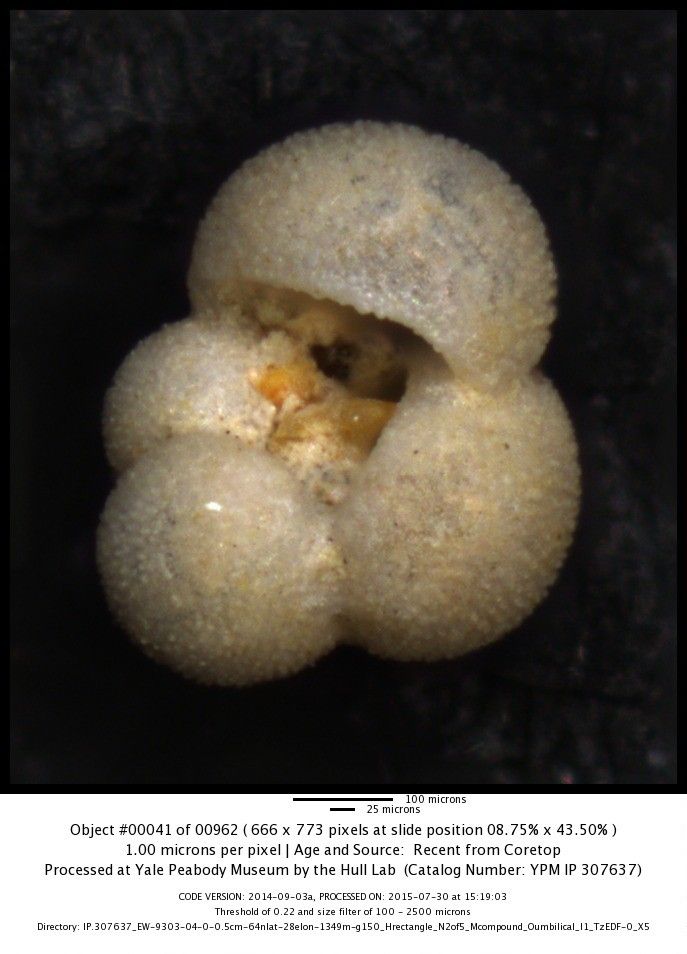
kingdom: Chromista
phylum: Foraminifera
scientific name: Foraminifera
